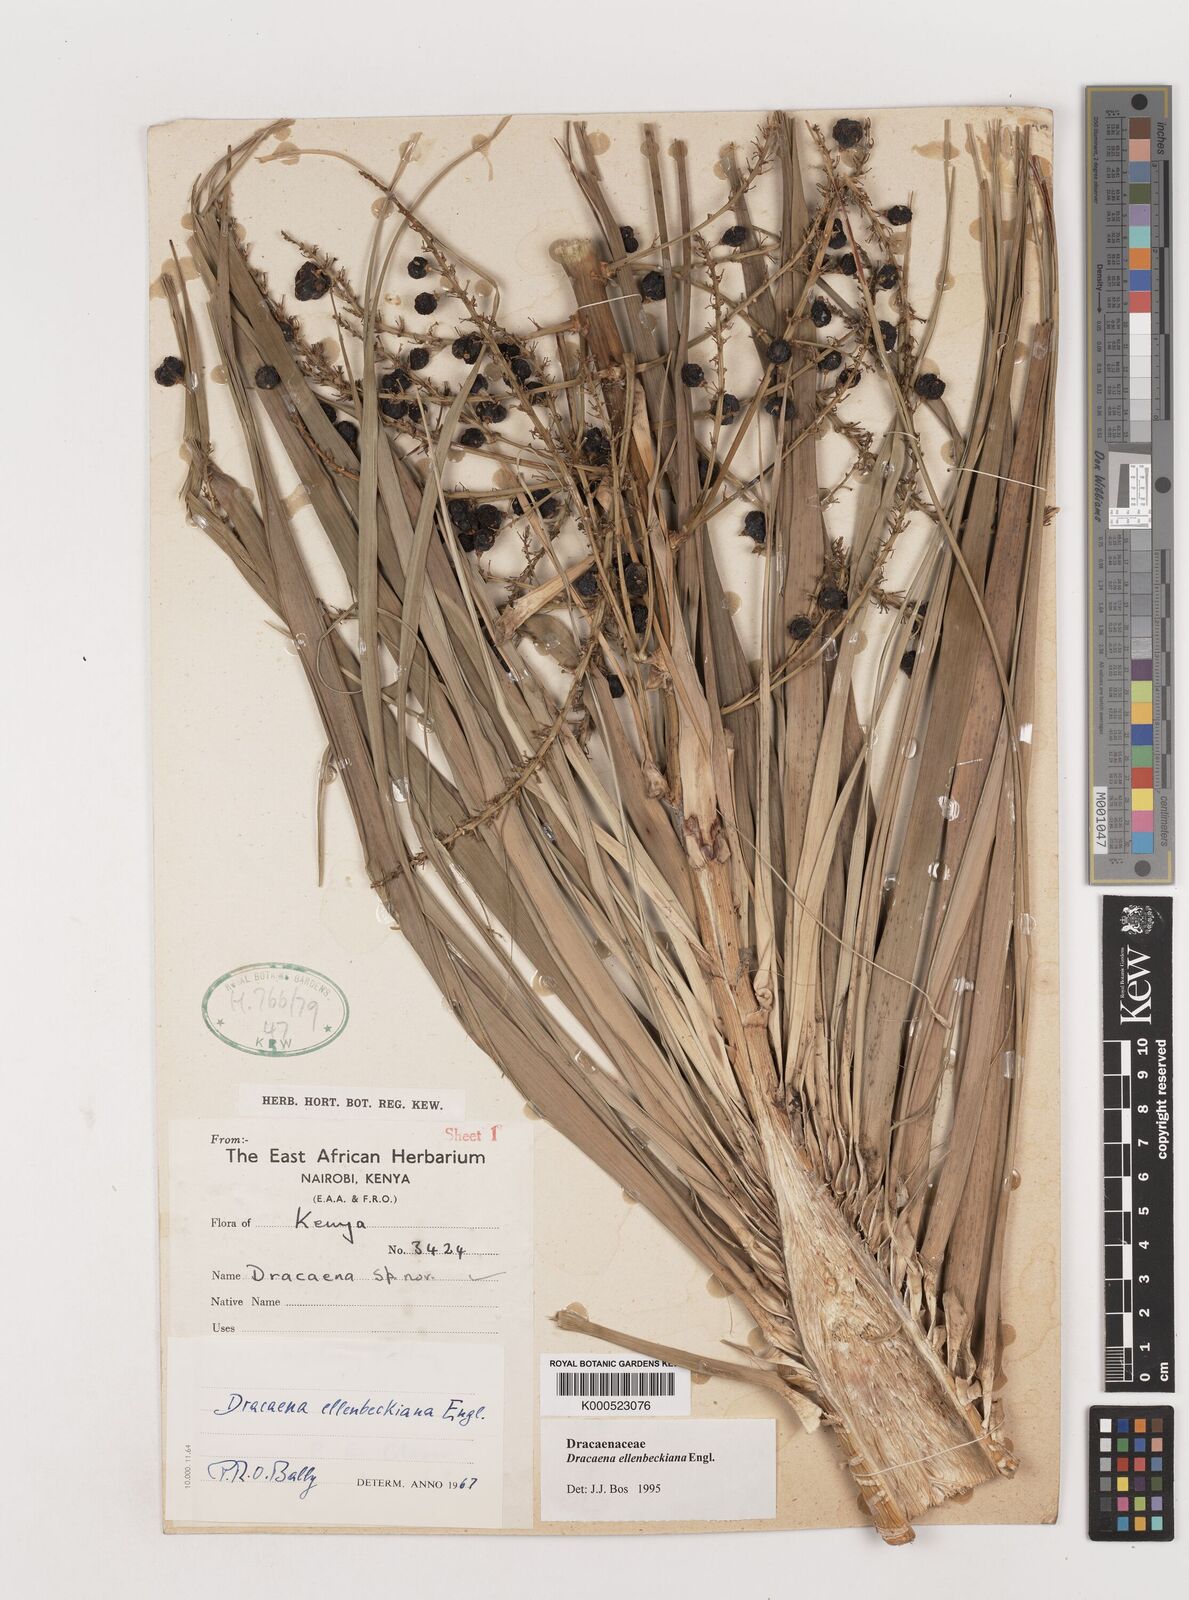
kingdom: Plantae
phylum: Tracheophyta
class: Liliopsida
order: Asparagales
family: Asparagaceae
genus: Dracaena
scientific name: Dracaena ellenbeckiana
